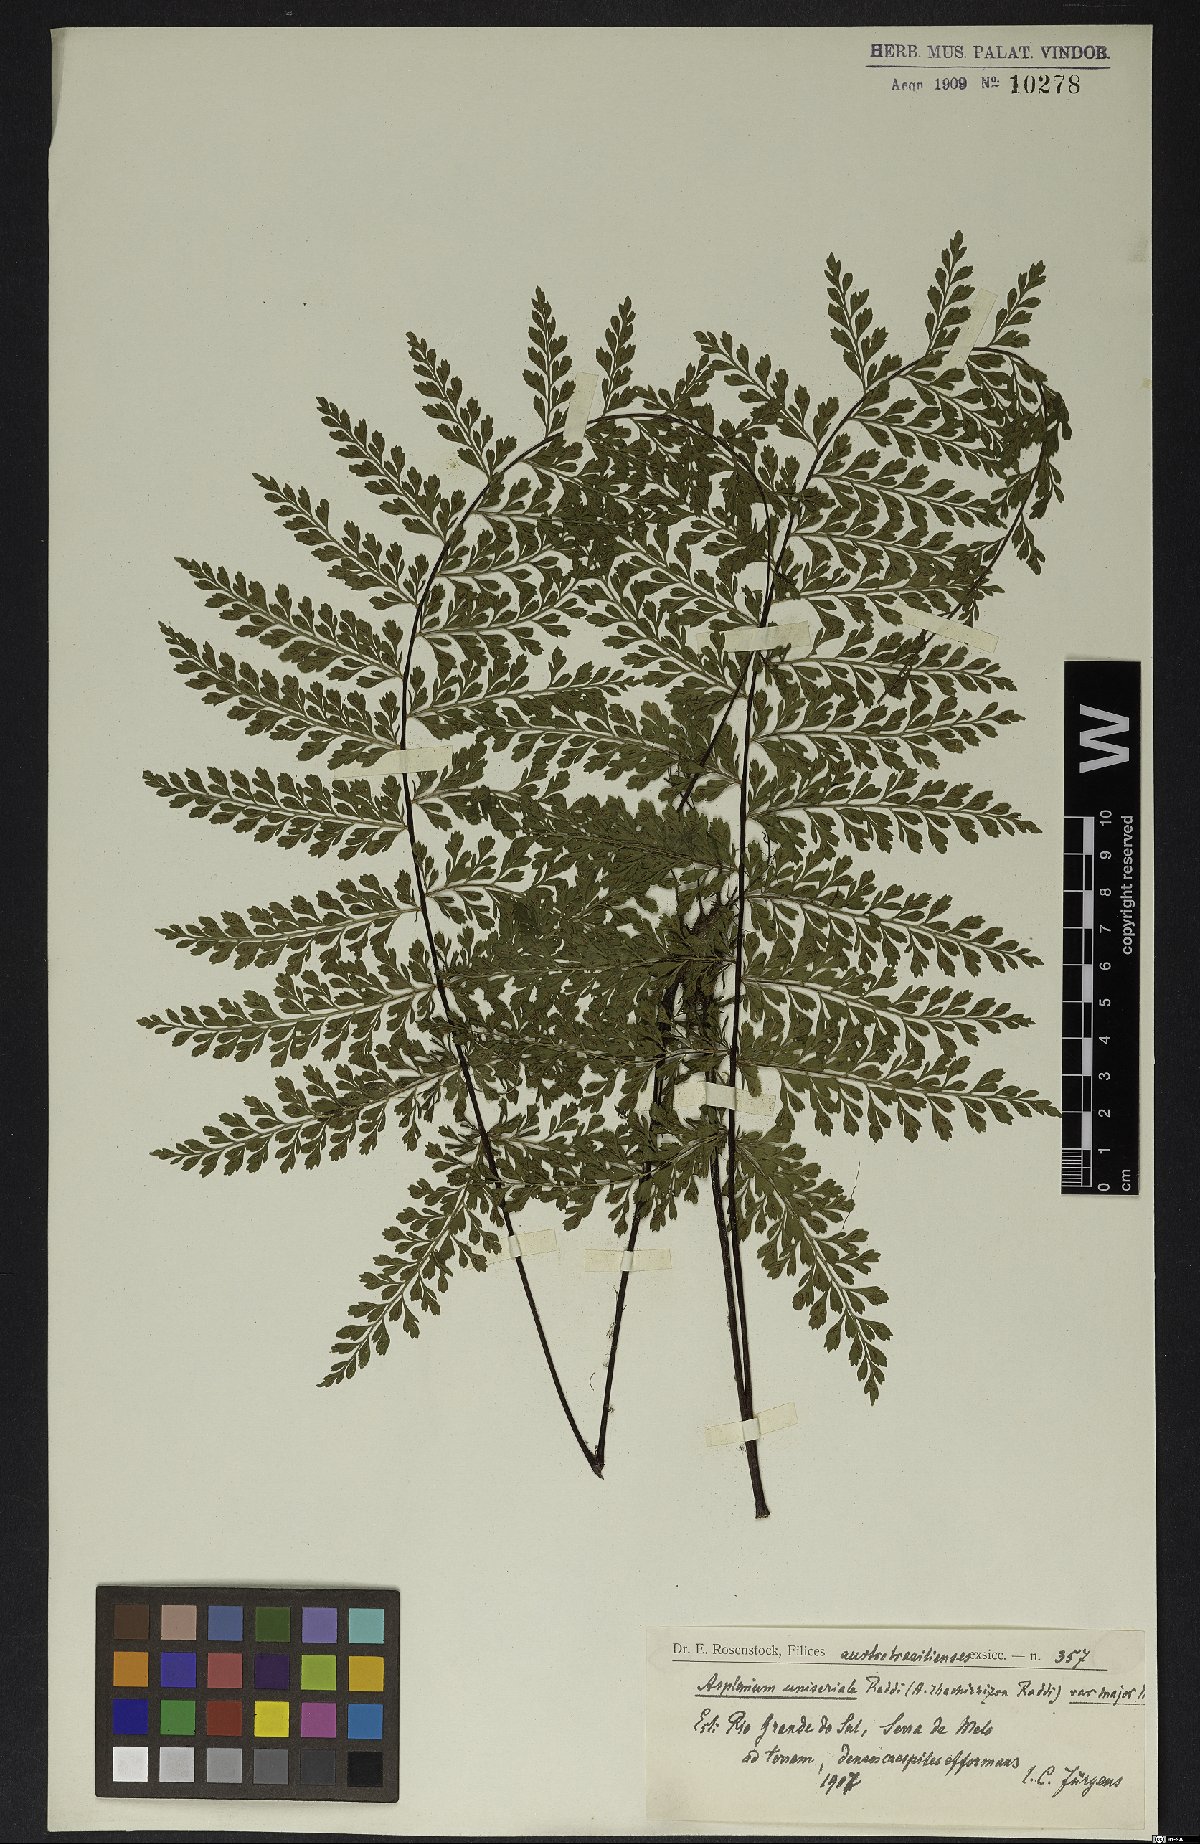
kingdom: Plantae
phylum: Tracheophyta
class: Polypodiopsida
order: Polypodiales
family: Aspleniaceae
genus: Asplenium
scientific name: Asplenium radicans
